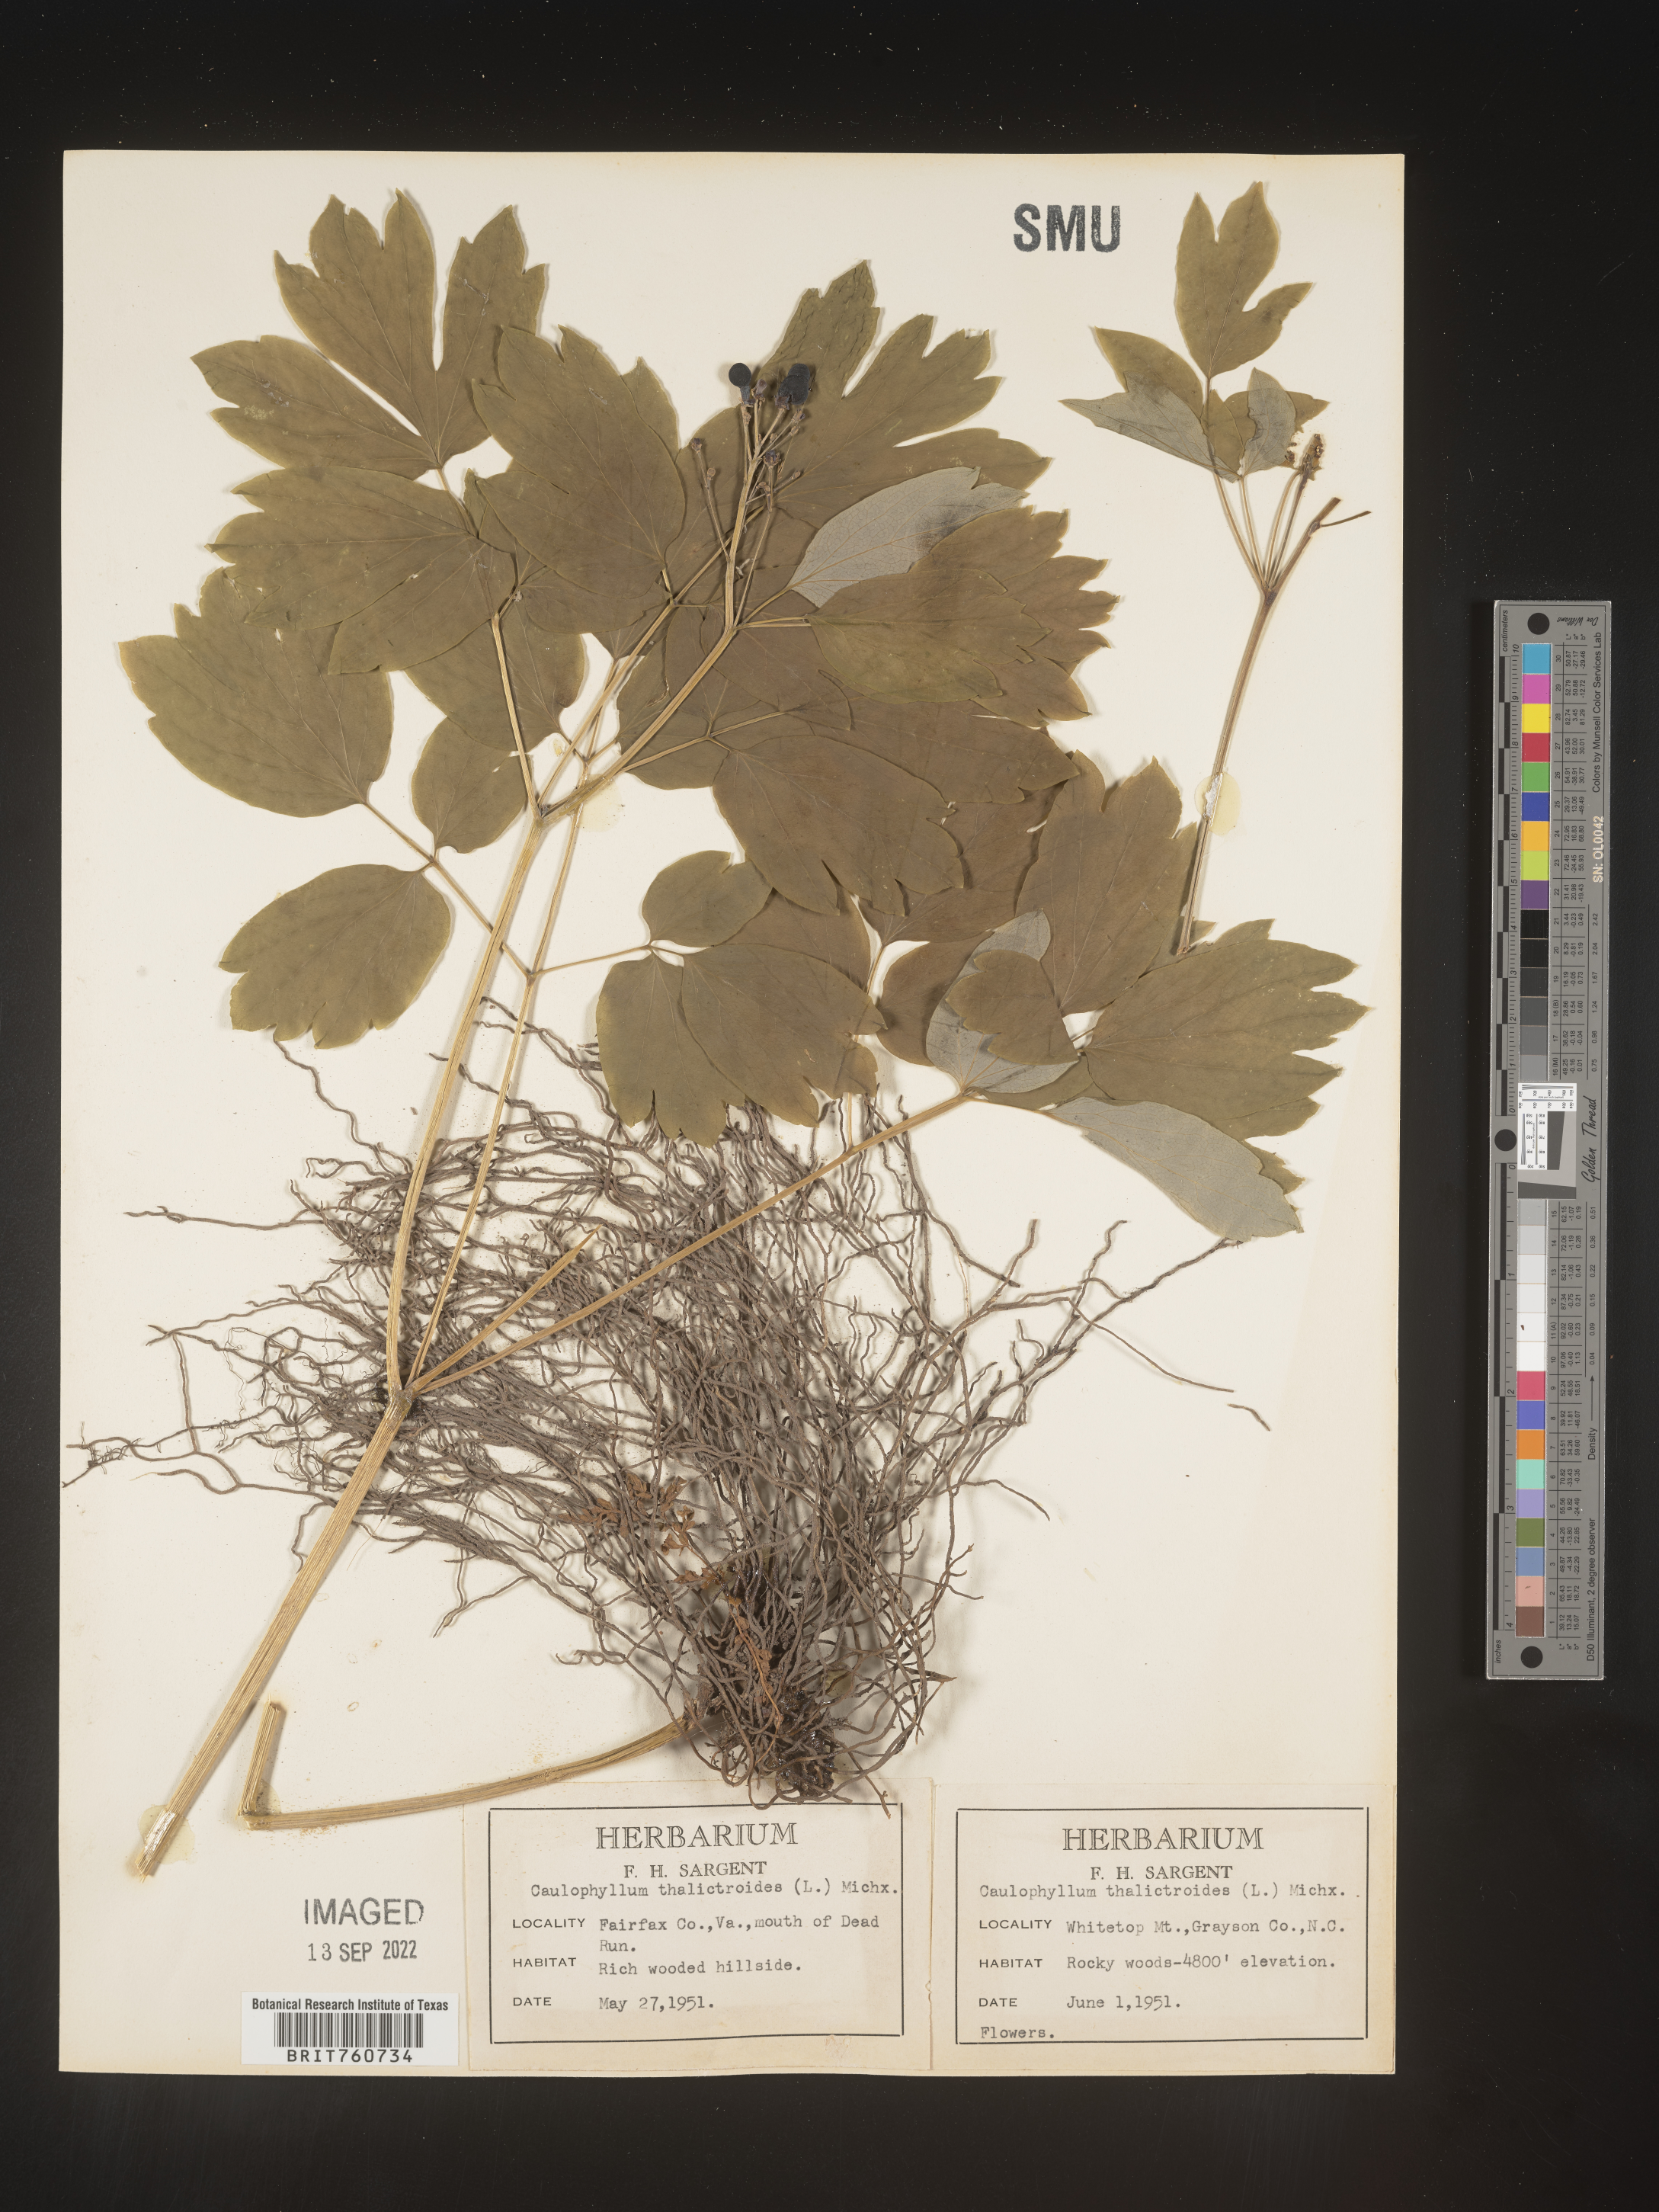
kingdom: Plantae
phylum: Tracheophyta
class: Magnoliopsida
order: Ranunculales
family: Berberidaceae
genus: Caulophyllum
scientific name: Caulophyllum thalictroides
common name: Blue cohosh
